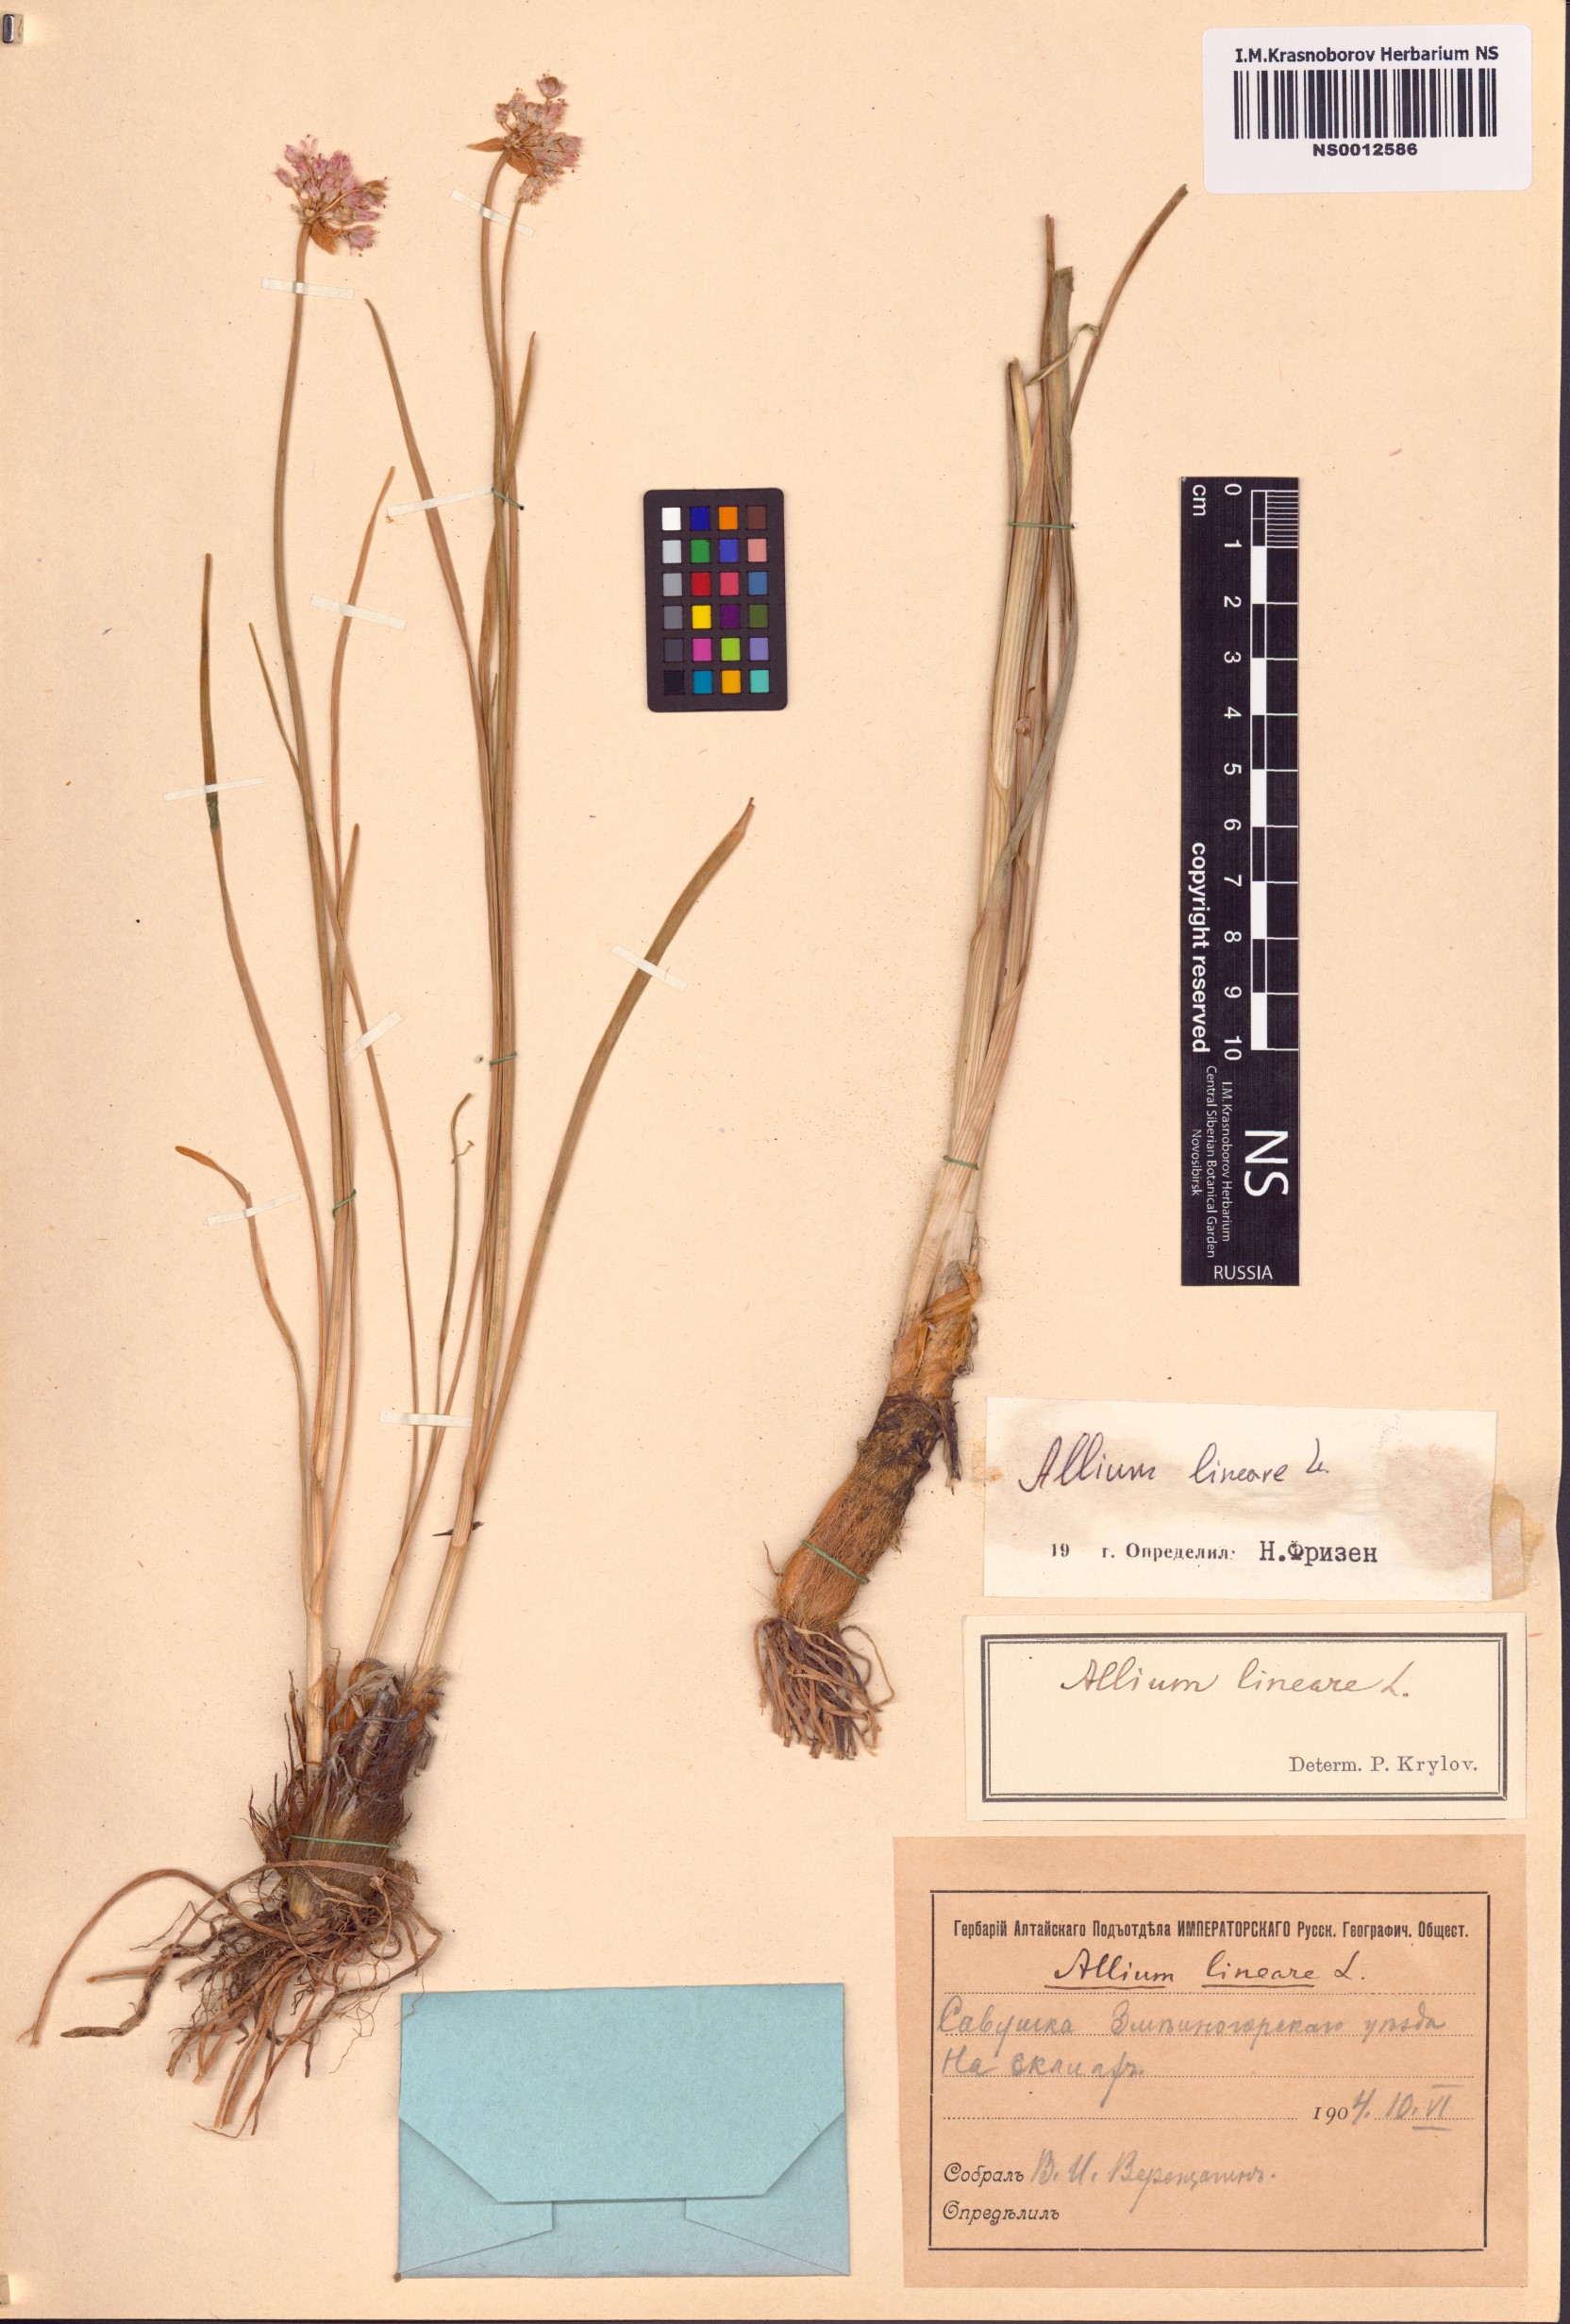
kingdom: Plantae
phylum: Tracheophyta
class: Liliopsida
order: Asparagales
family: Amaryllidaceae
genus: Allium
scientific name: Allium lineare
